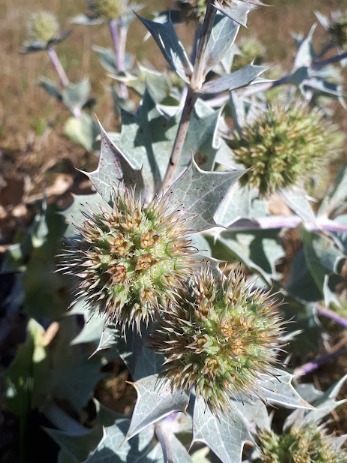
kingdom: Plantae
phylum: Tracheophyta
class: Magnoliopsida
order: Apiales
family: Apiaceae
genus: Eryngium
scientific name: Eryngium maritimum
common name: Strand-mandstro
